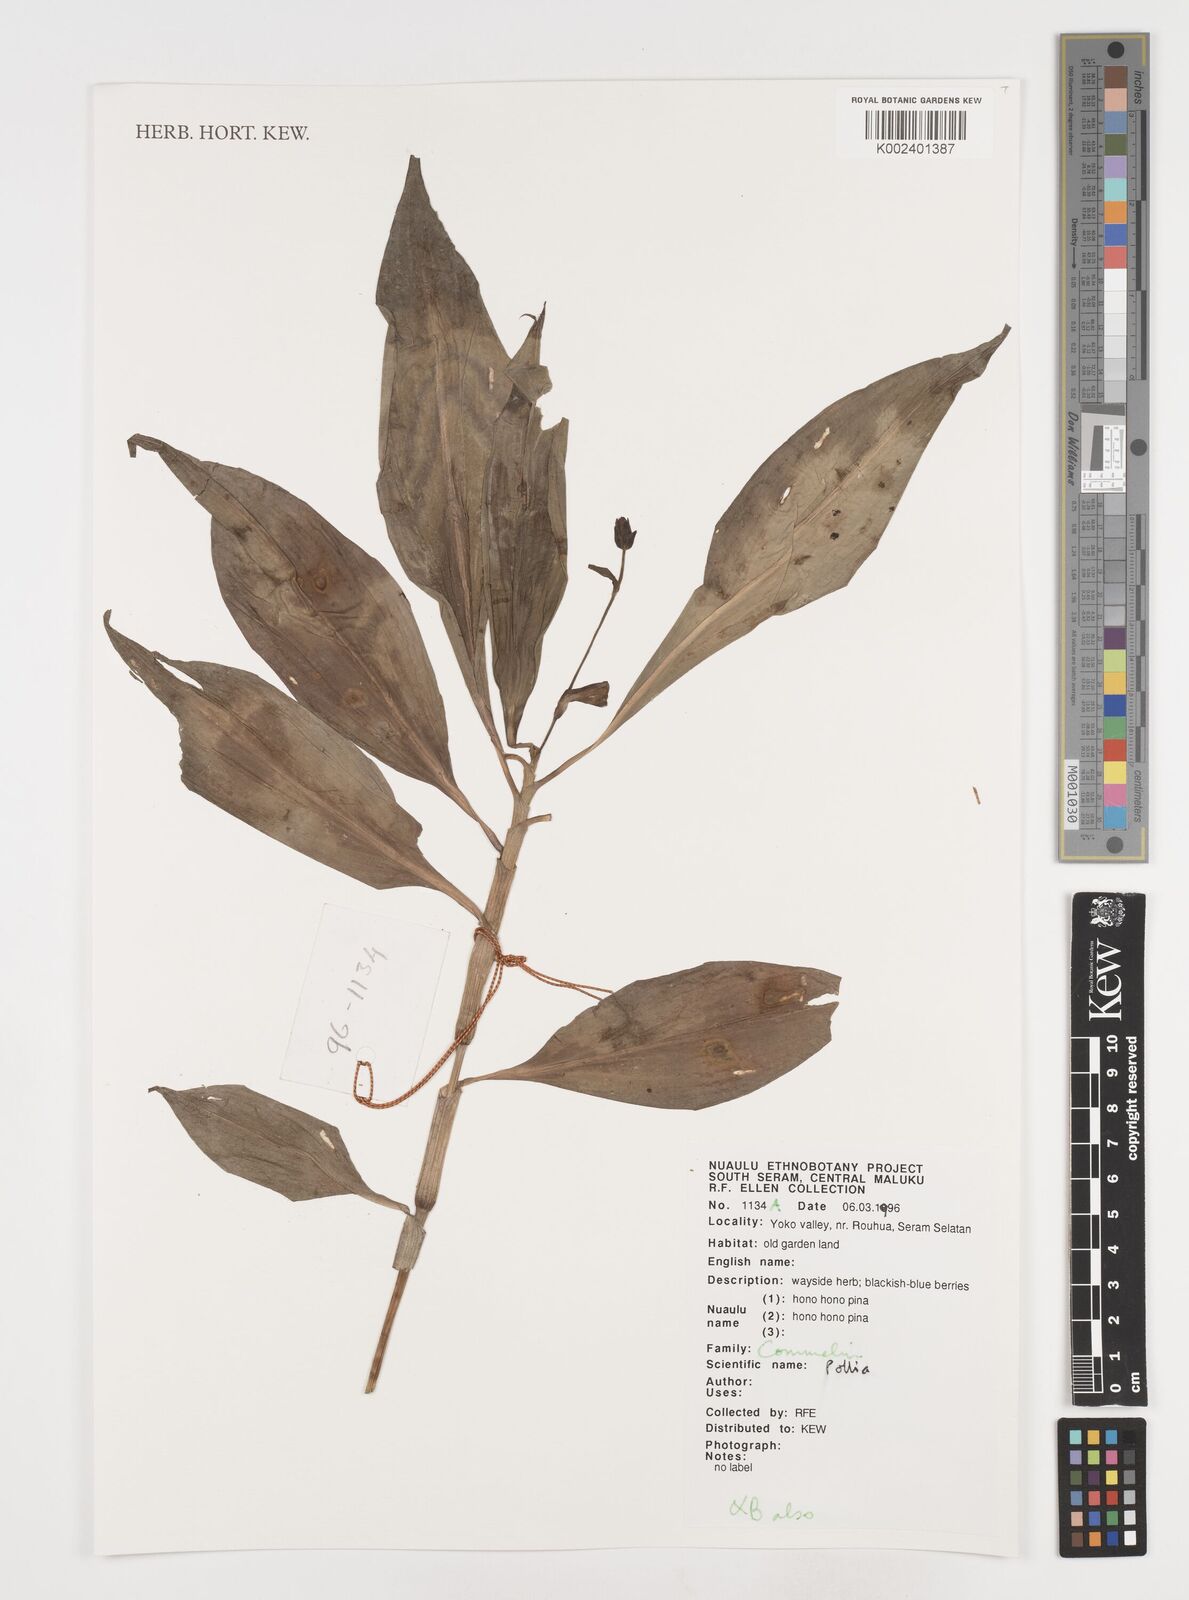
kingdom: Plantae
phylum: Tracheophyta
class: Liliopsida
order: Commelinales
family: Commelinaceae
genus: Pollia
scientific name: Pollia
